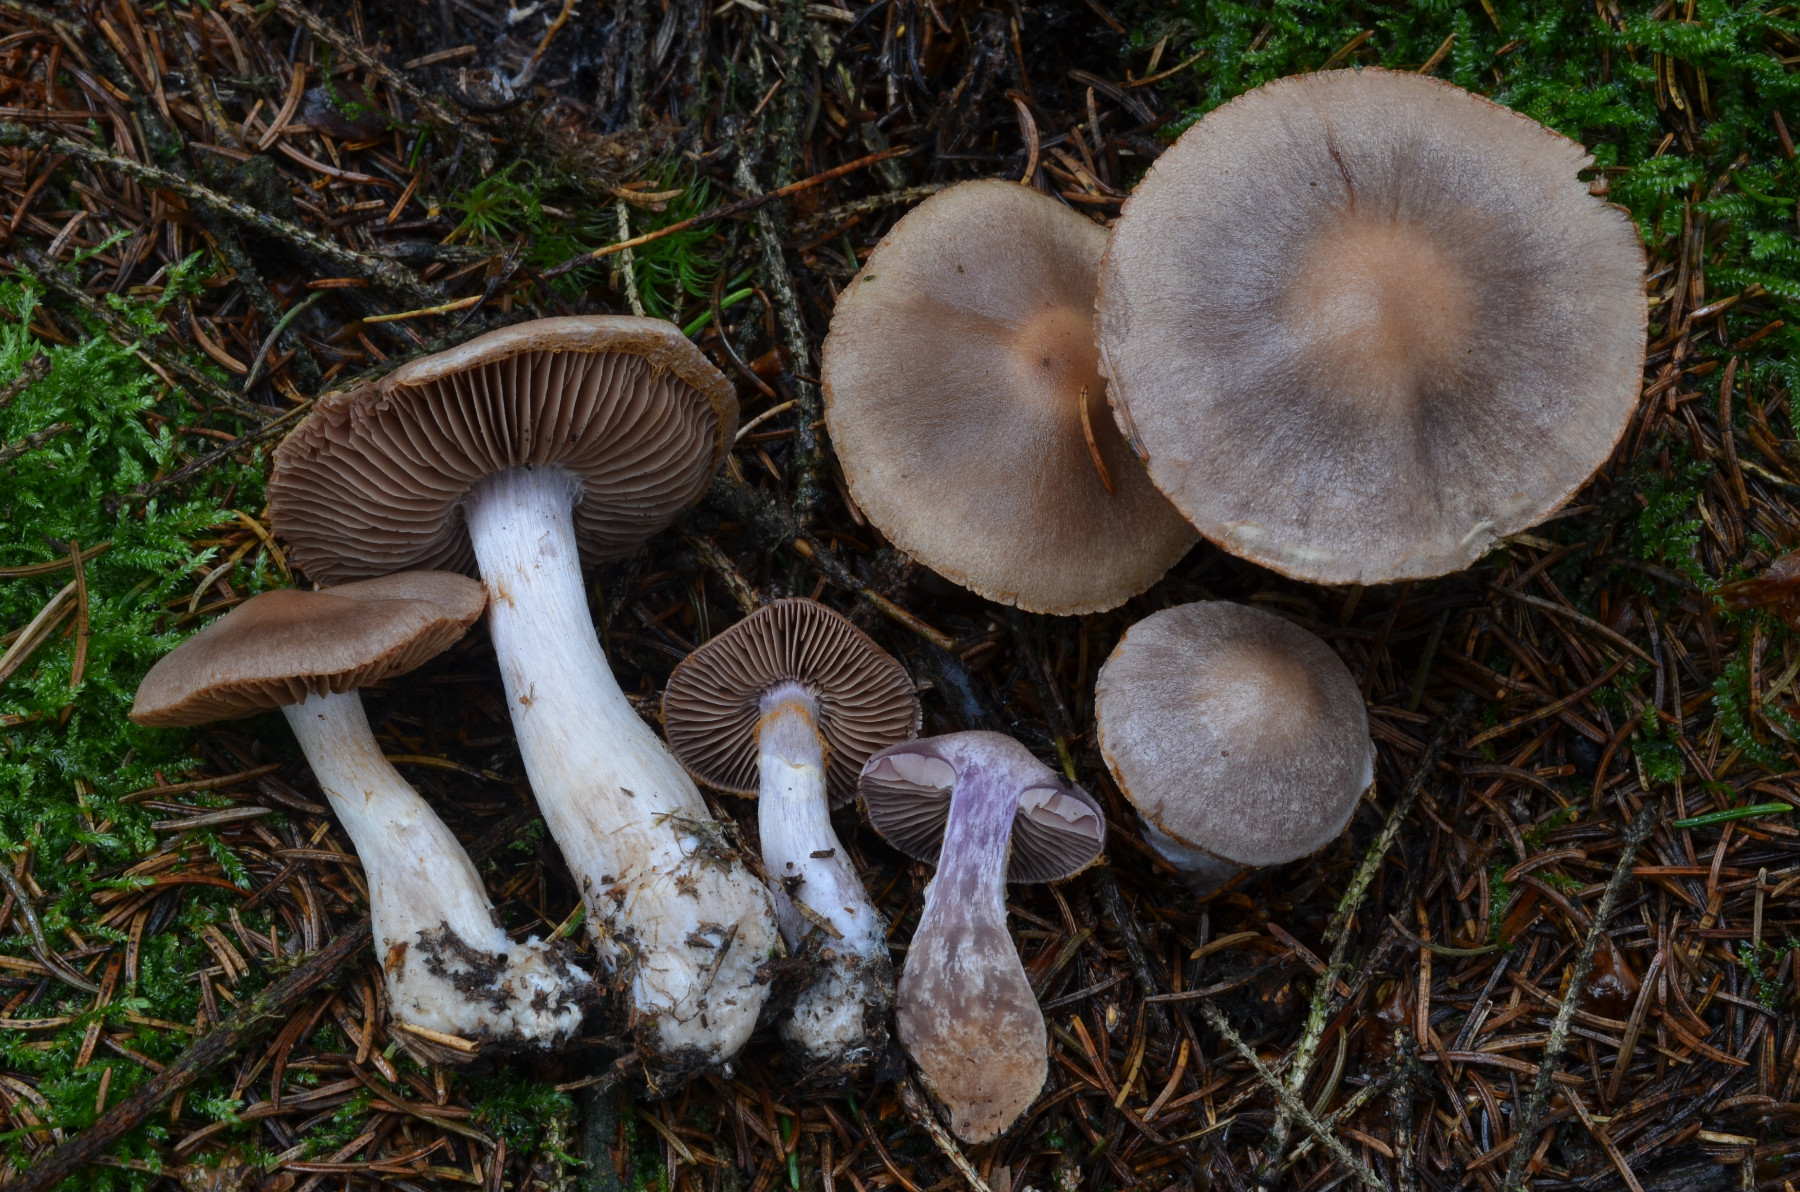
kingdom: Fungi
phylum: Basidiomycota
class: Agaricomycetes
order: Agaricales
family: Cortinariaceae
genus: Cortinarius
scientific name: Cortinarius malachius
